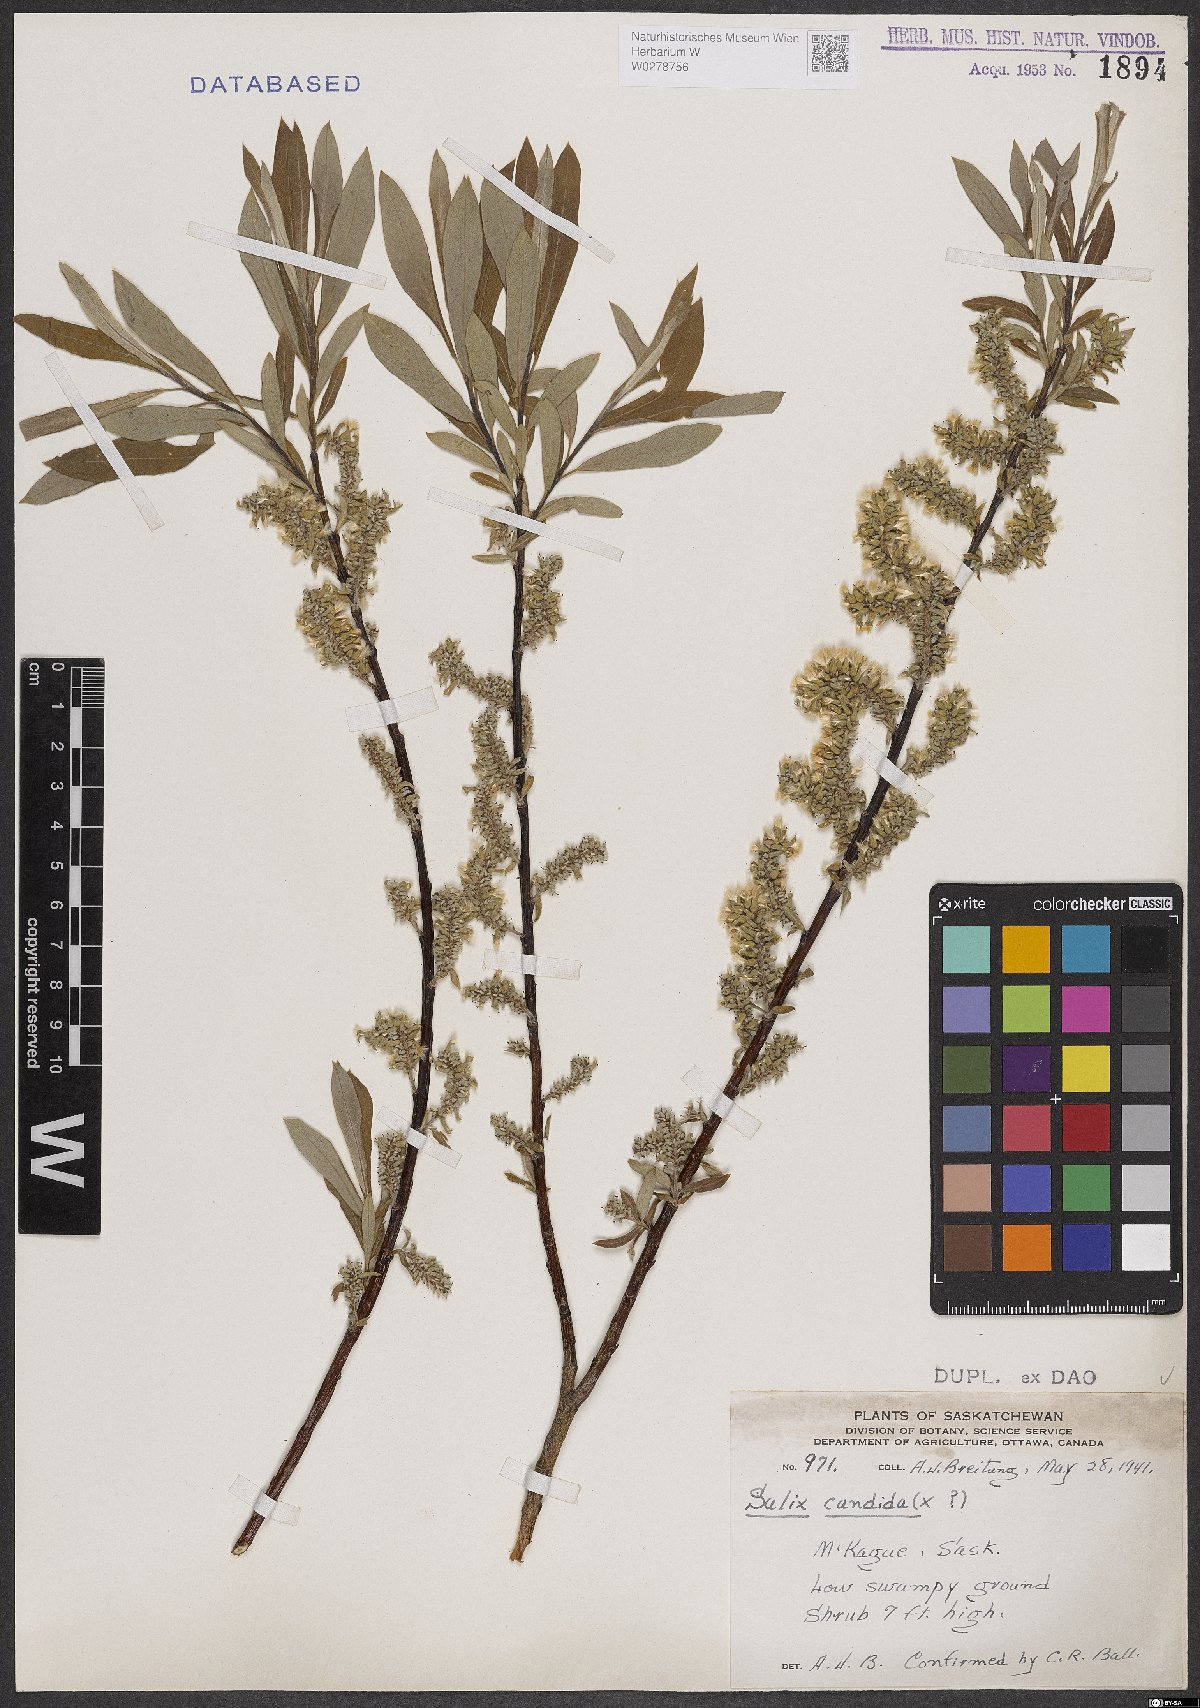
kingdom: Plantae
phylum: Tracheophyta
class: Magnoliopsida
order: Malpighiales
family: Salicaceae
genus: Salix
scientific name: Salix candida
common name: Hoary willow
